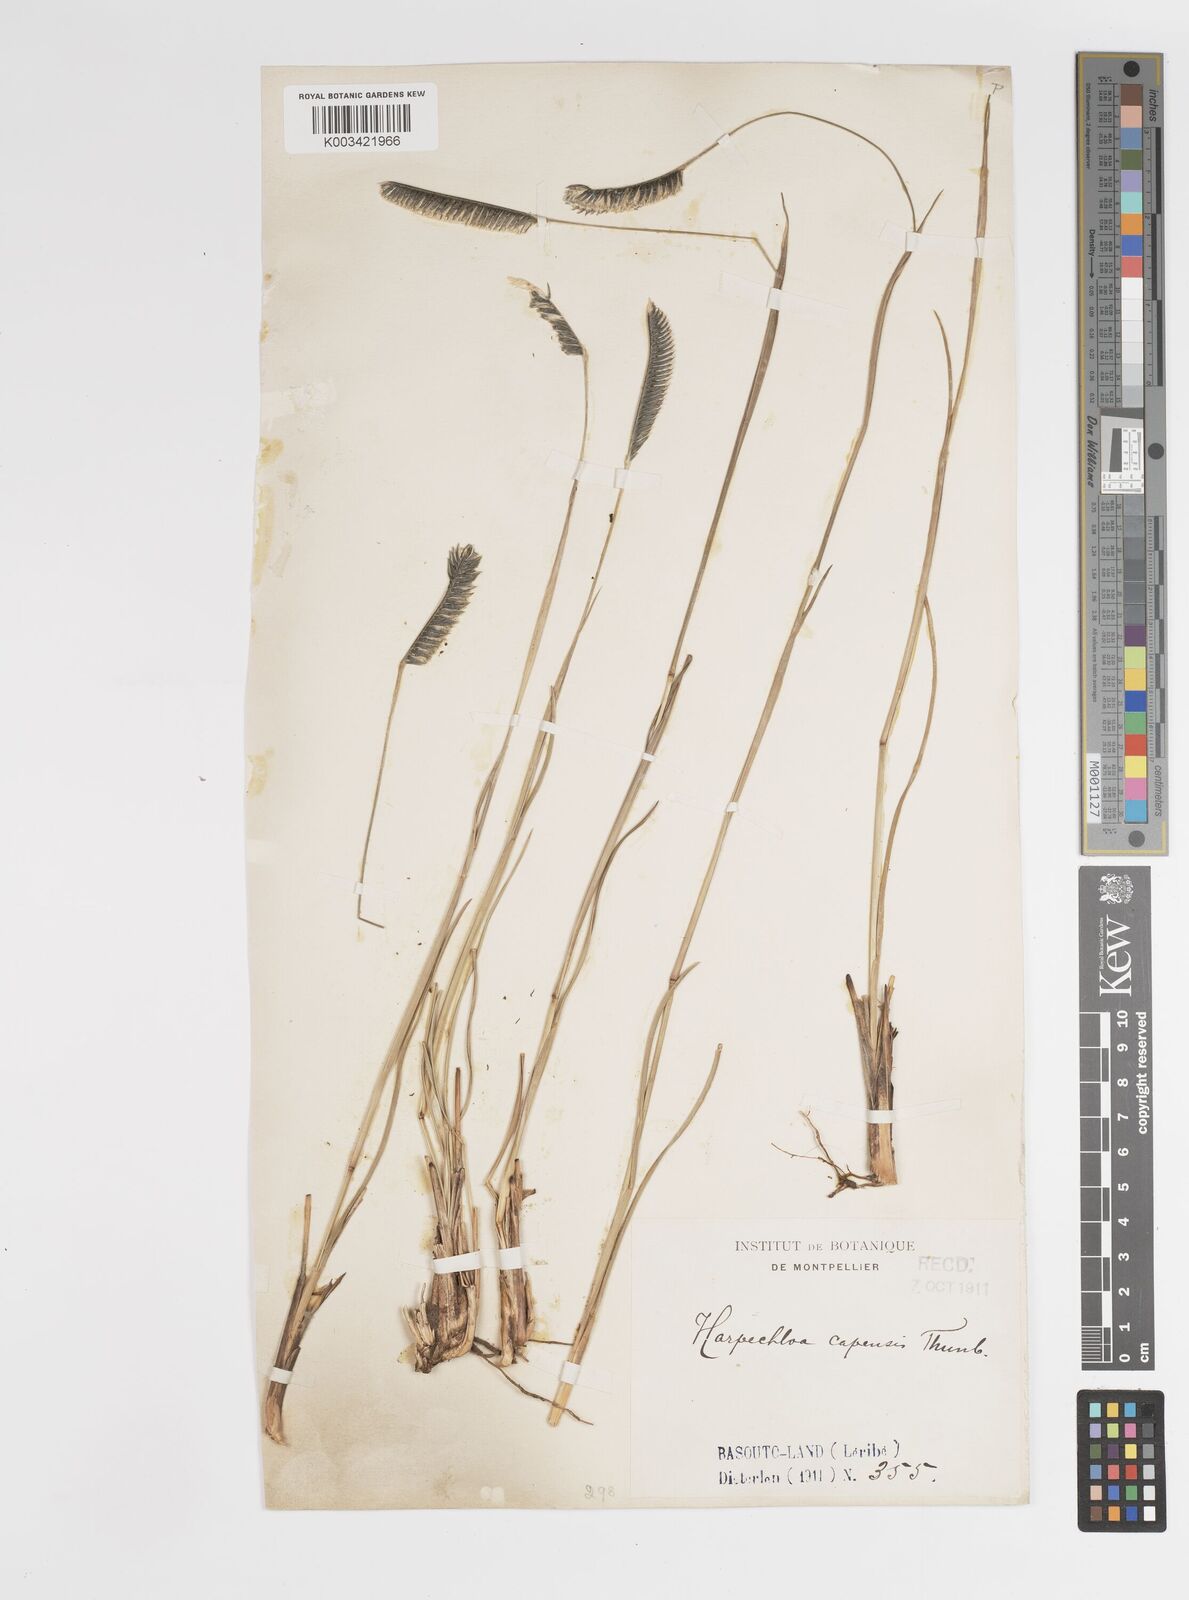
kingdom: Plantae
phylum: Tracheophyta
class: Liliopsida
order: Poales
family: Poaceae
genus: Harpochloa
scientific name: Harpochloa falx
